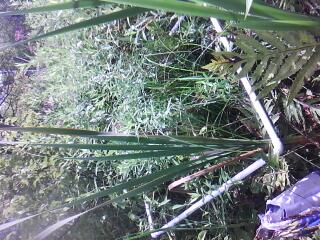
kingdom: Plantae
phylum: Tracheophyta
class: Liliopsida
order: Poales
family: Cyperaceae
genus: Carex
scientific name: Carex pellita
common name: Woolly sedge
